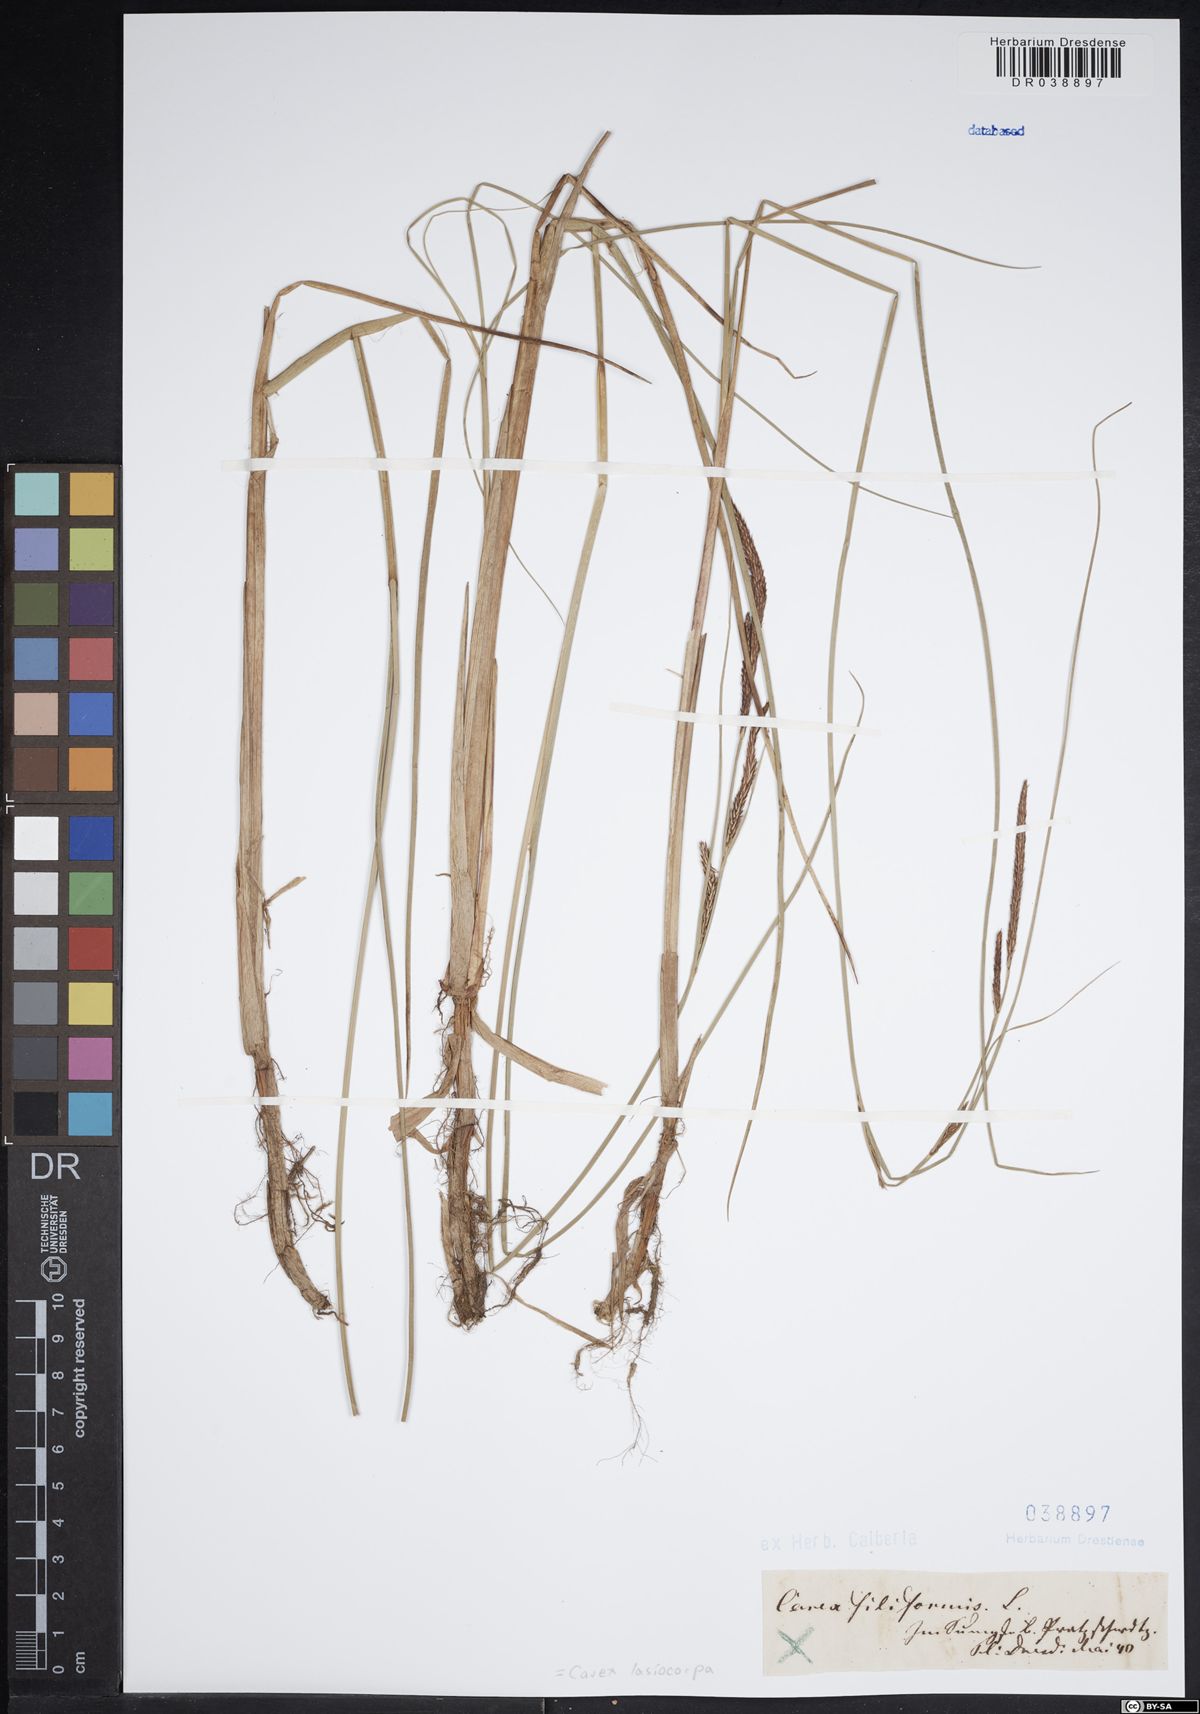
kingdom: Plantae
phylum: Tracheophyta
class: Liliopsida
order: Poales
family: Cyperaceae
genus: Carex
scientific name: Carex lasiocarpa
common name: Slender sedge
